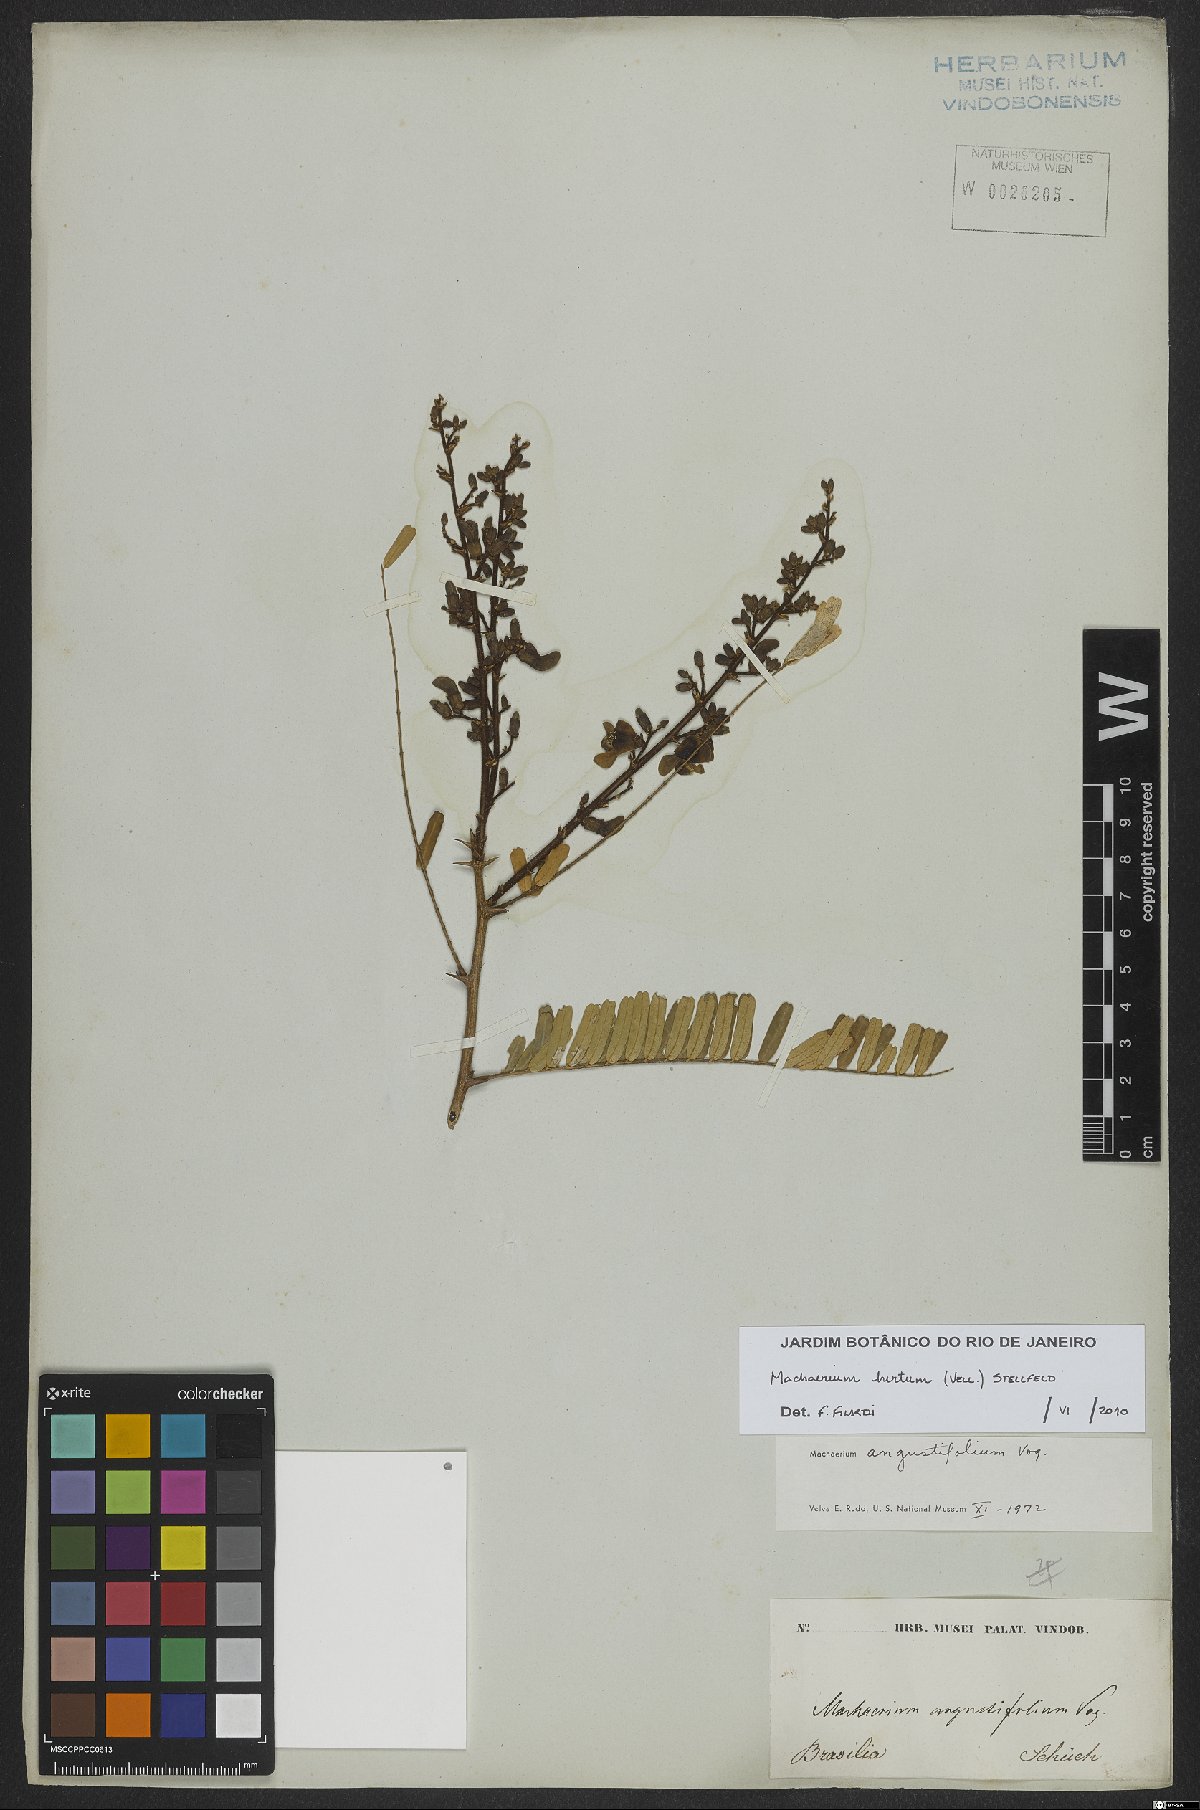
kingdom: Plantae
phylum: Tracheophyta
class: Magnoliopsida
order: Fabales
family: Fabaceae
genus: Machaerium
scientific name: Machaerium hirtum
